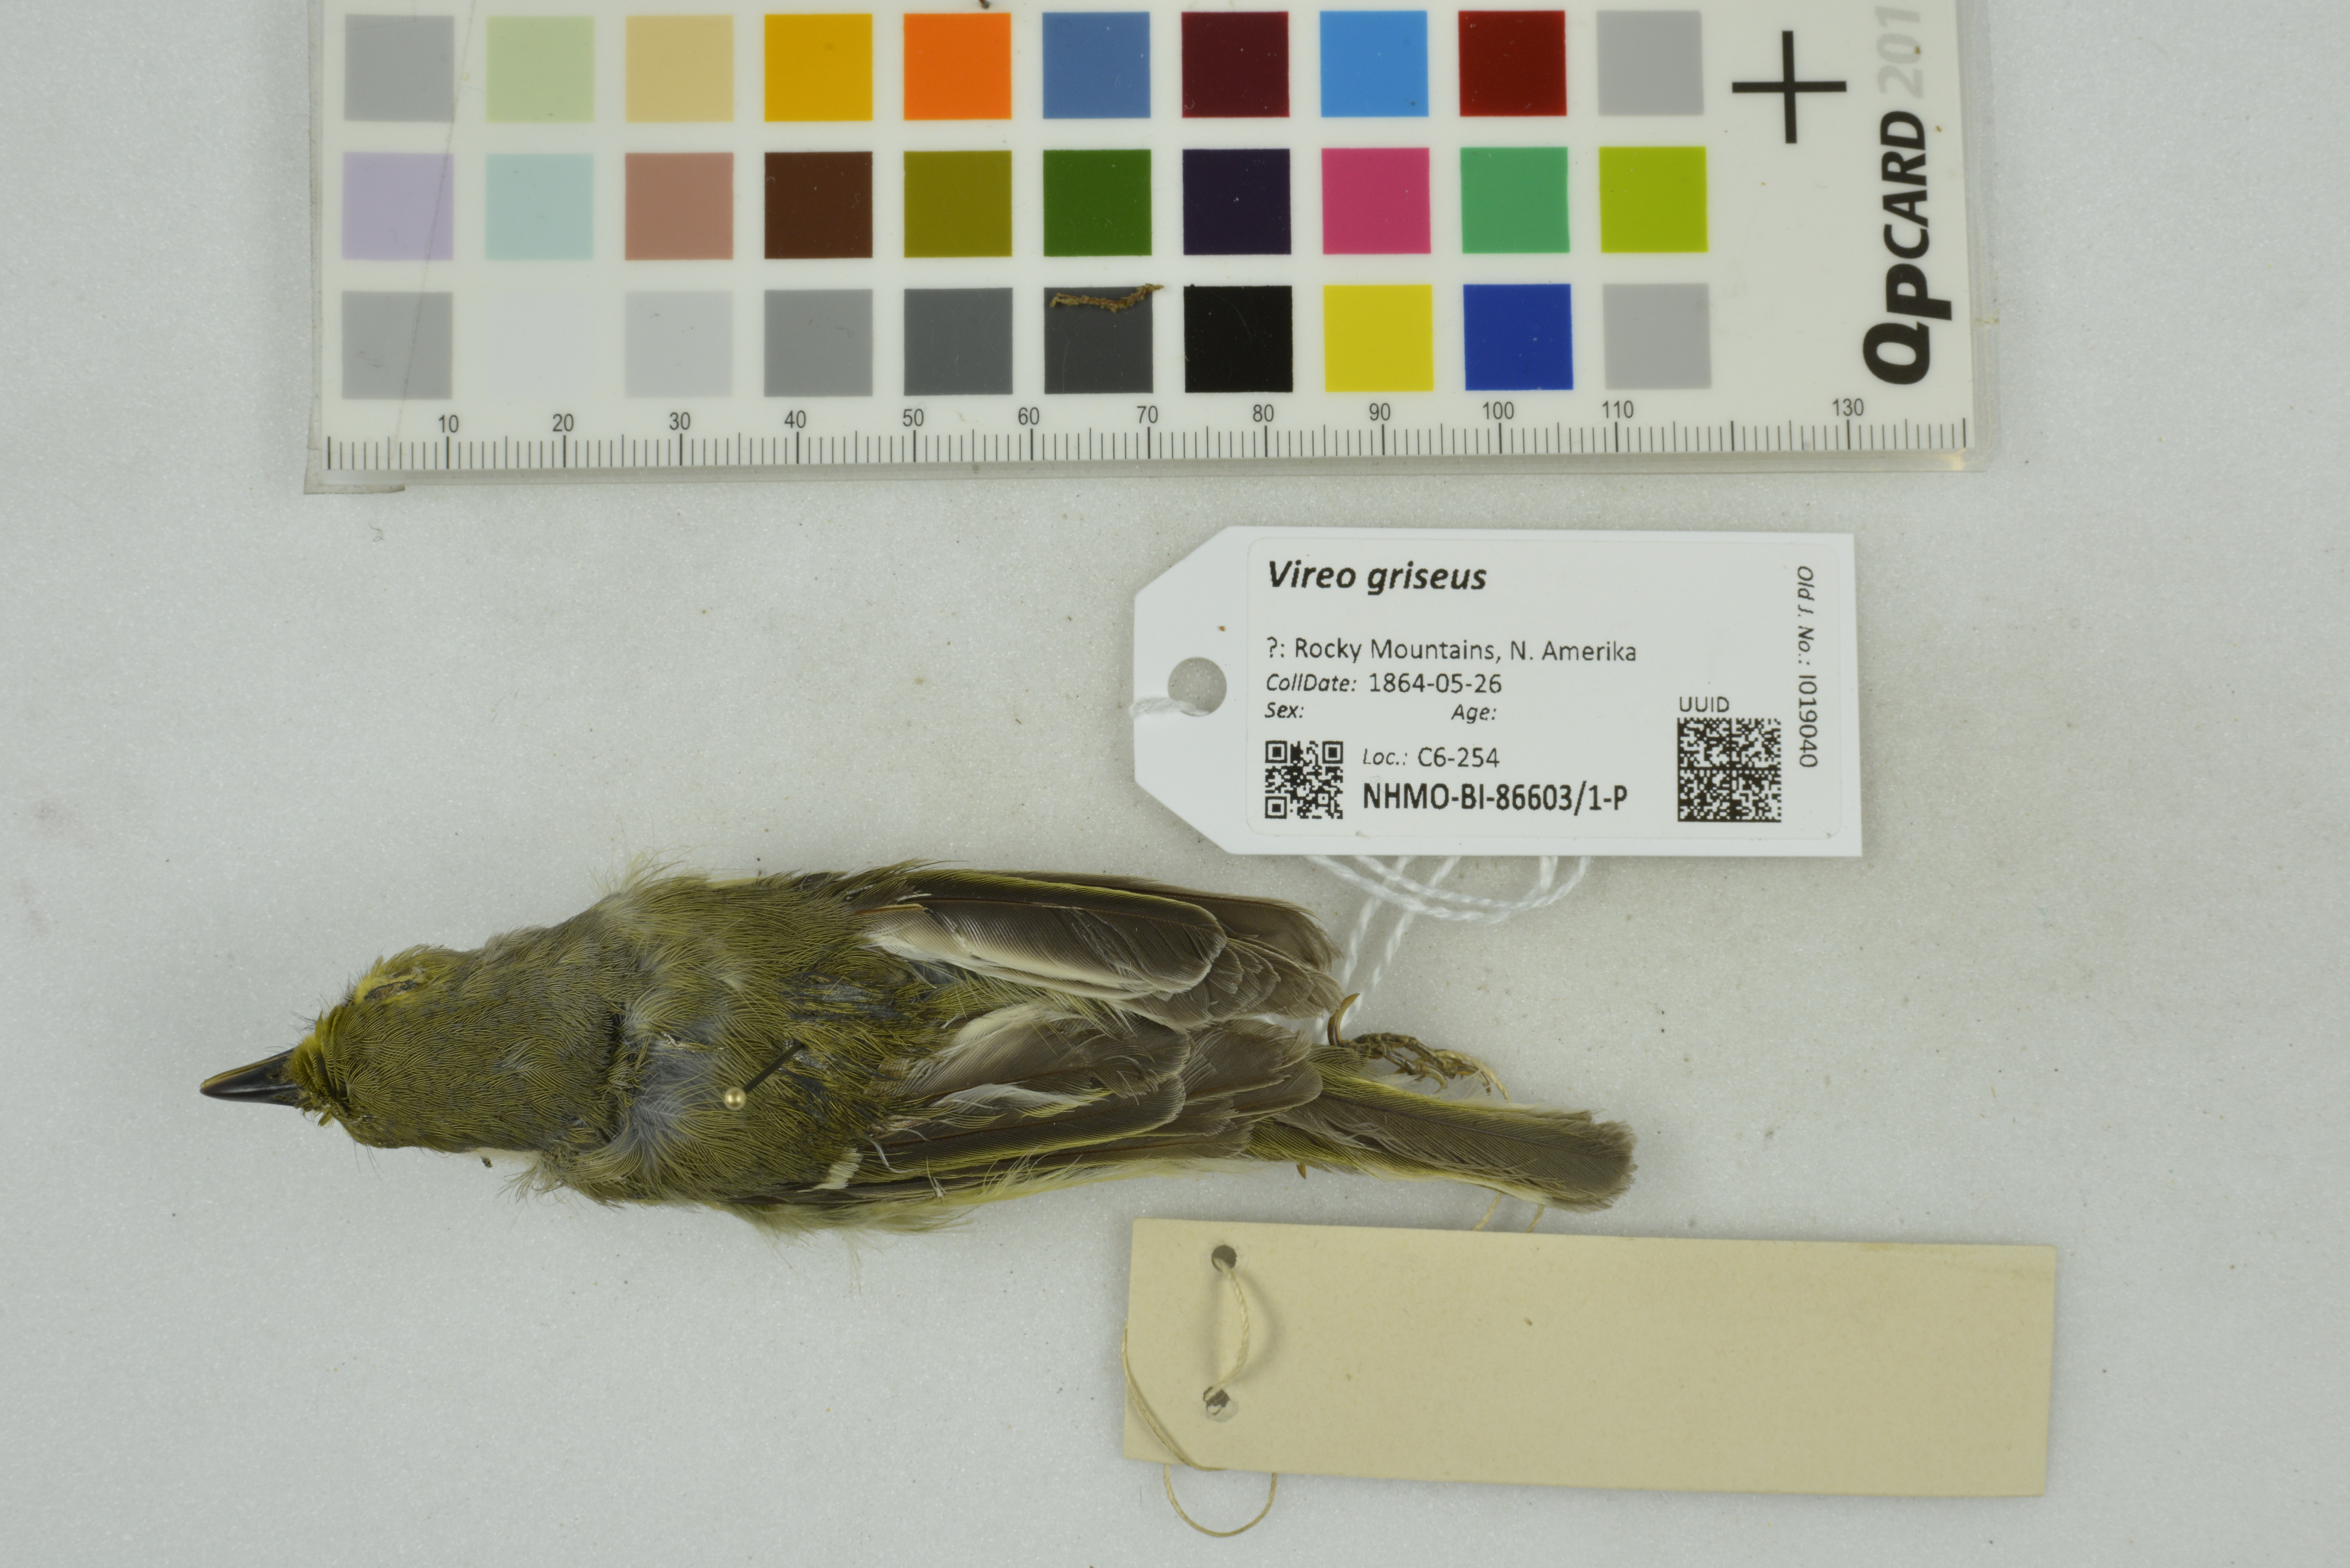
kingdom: Animalia
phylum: Chordata
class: Aves
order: Passeriformes
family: Vireonidae
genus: Vireo
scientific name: Vireo griseus
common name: White-eyed vireo
